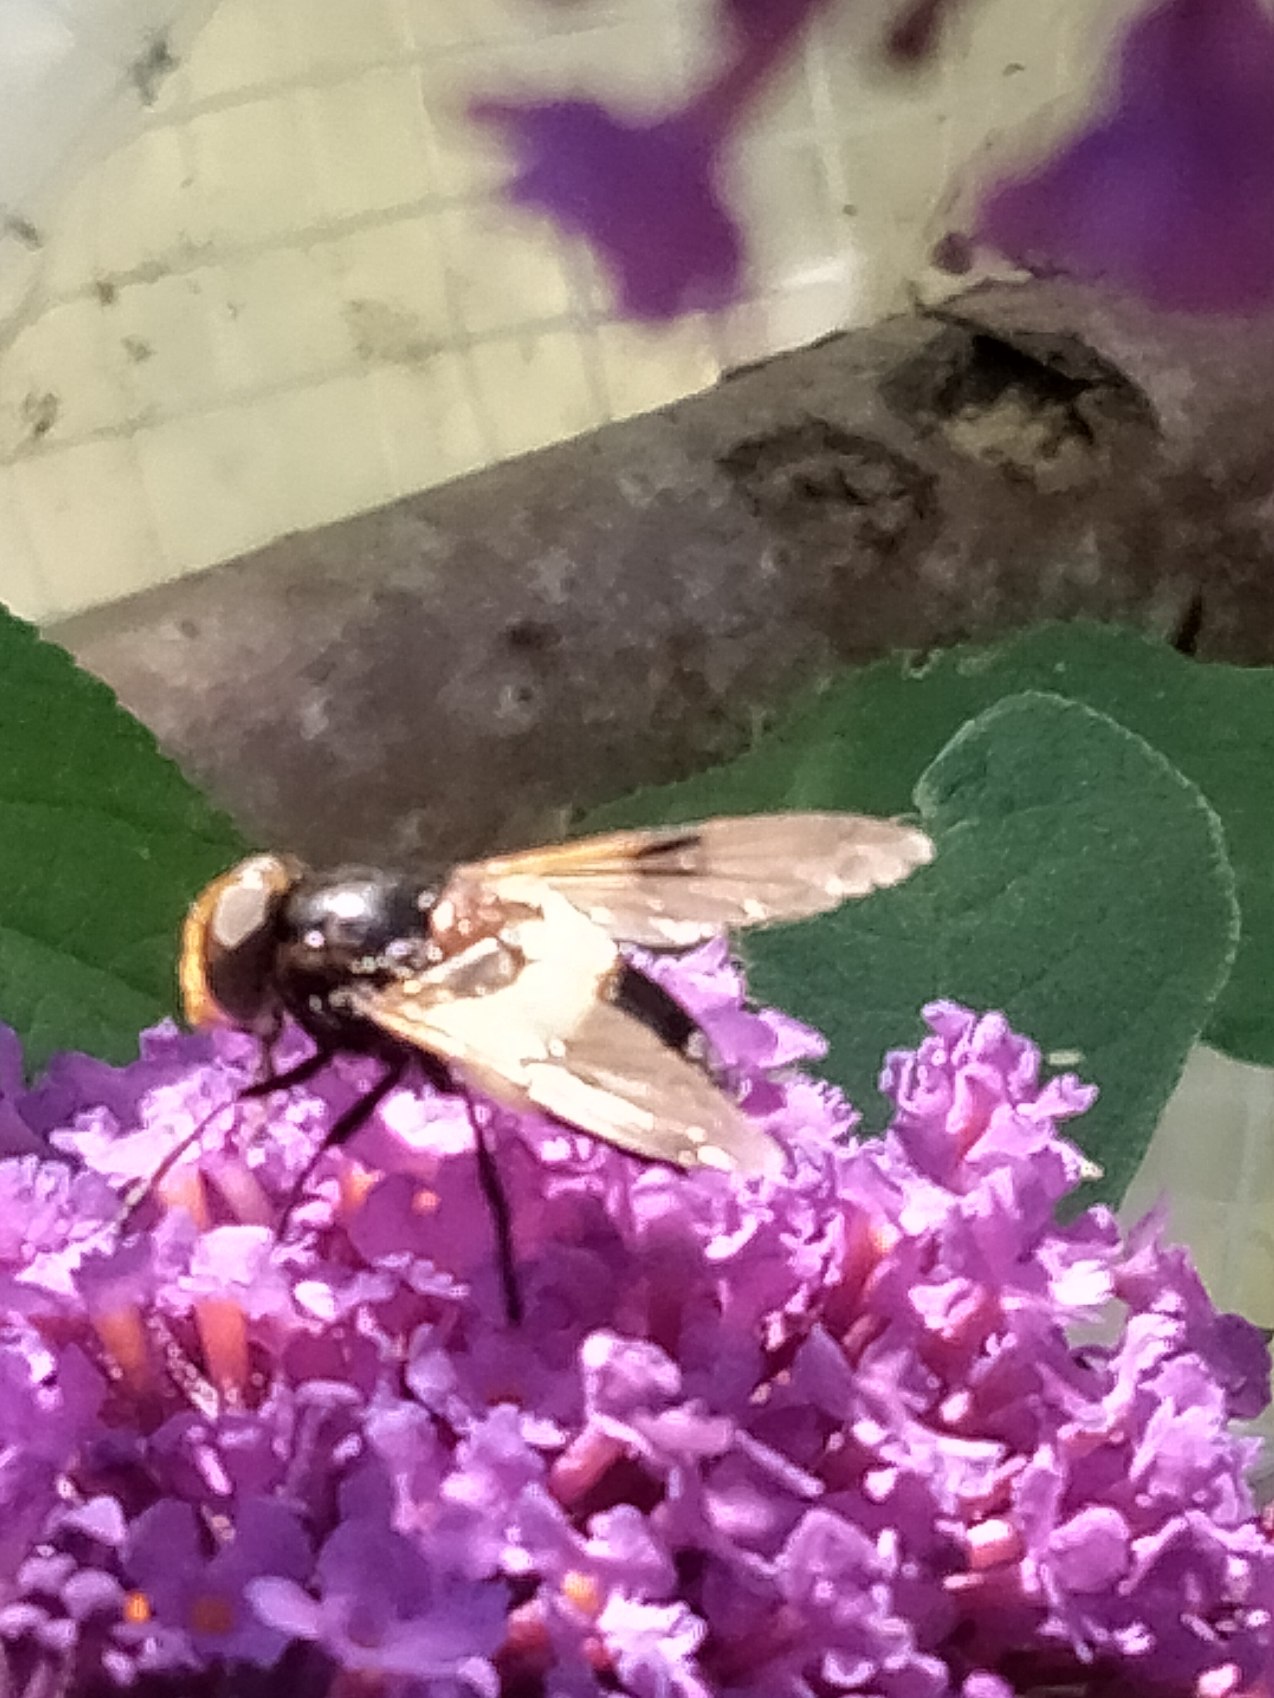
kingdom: Animalia
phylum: Arthropoda
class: Insecta
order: Diptera
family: Syrphidae
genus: Volucella
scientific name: Volucella pellucens
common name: Hvidbåndet humlesvirreflue
